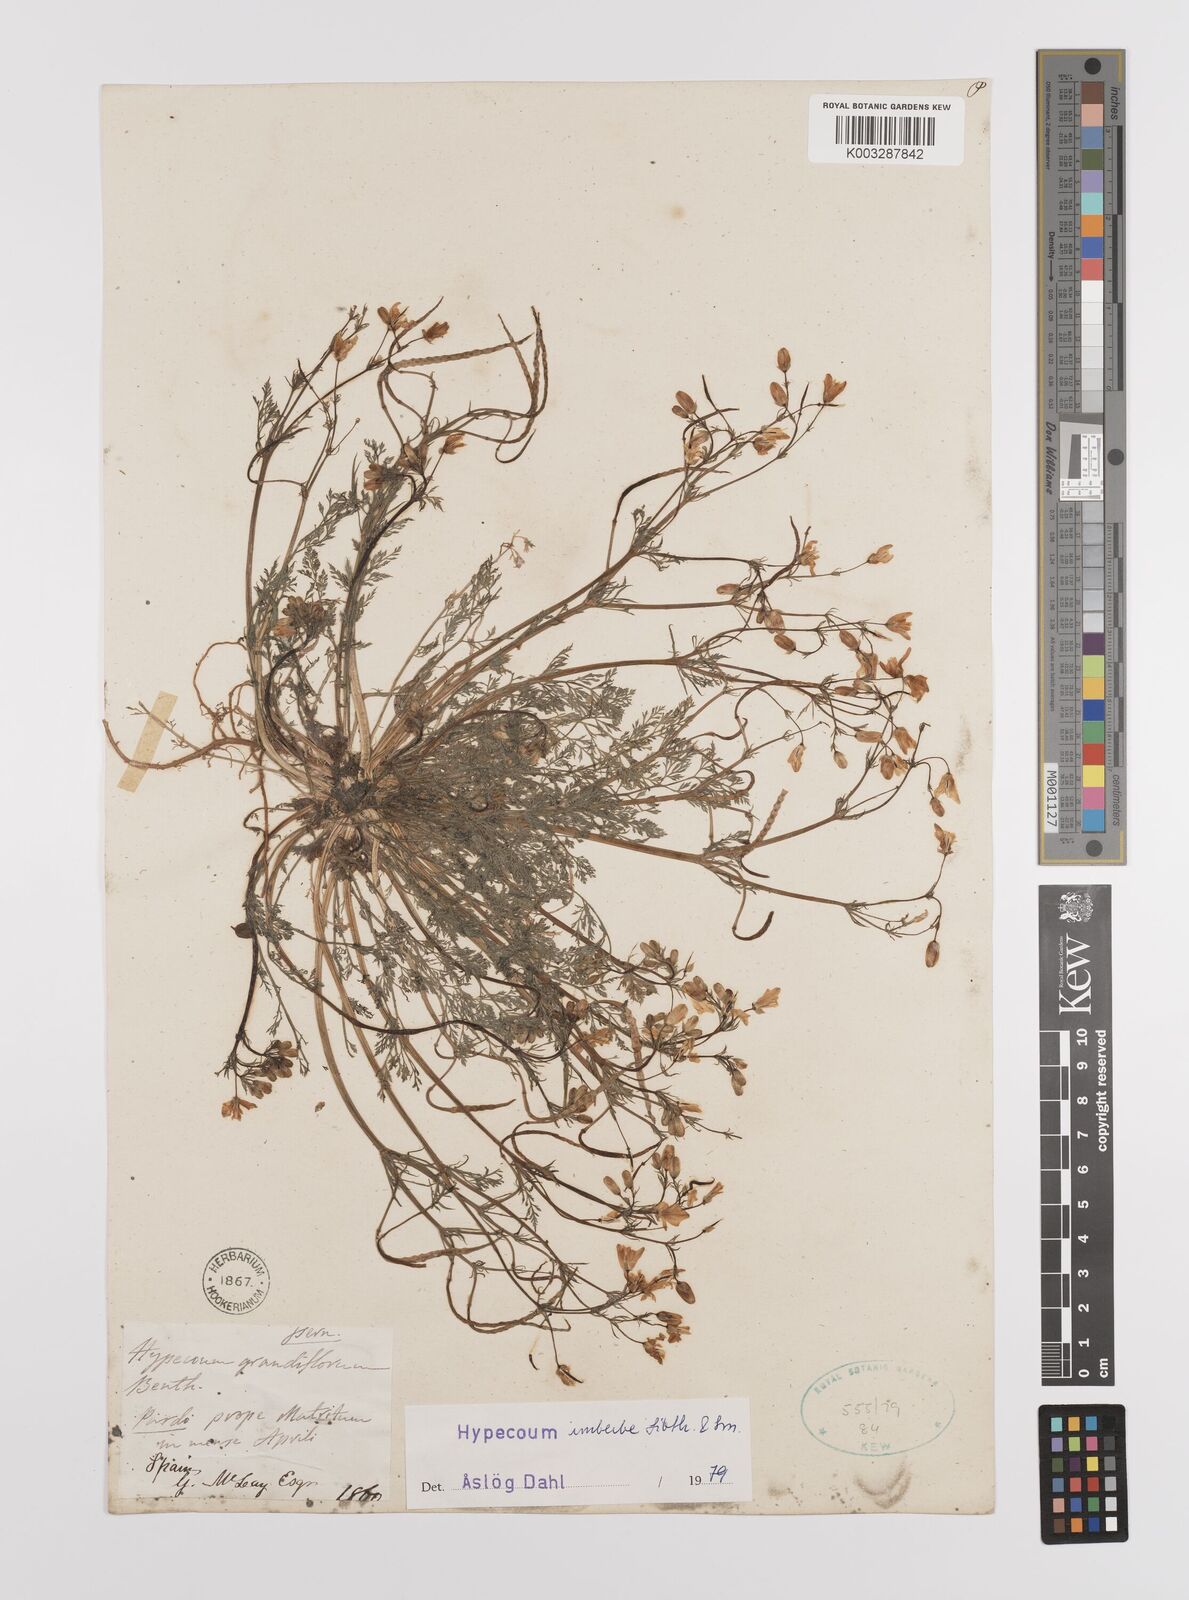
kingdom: Plantae
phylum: Tracheophyta
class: Magnoliopsida
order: Ranunculales
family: Papaveraceae
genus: Hypecoum
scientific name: Hypecoum imberbe
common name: Sicklefruit hypecoum
